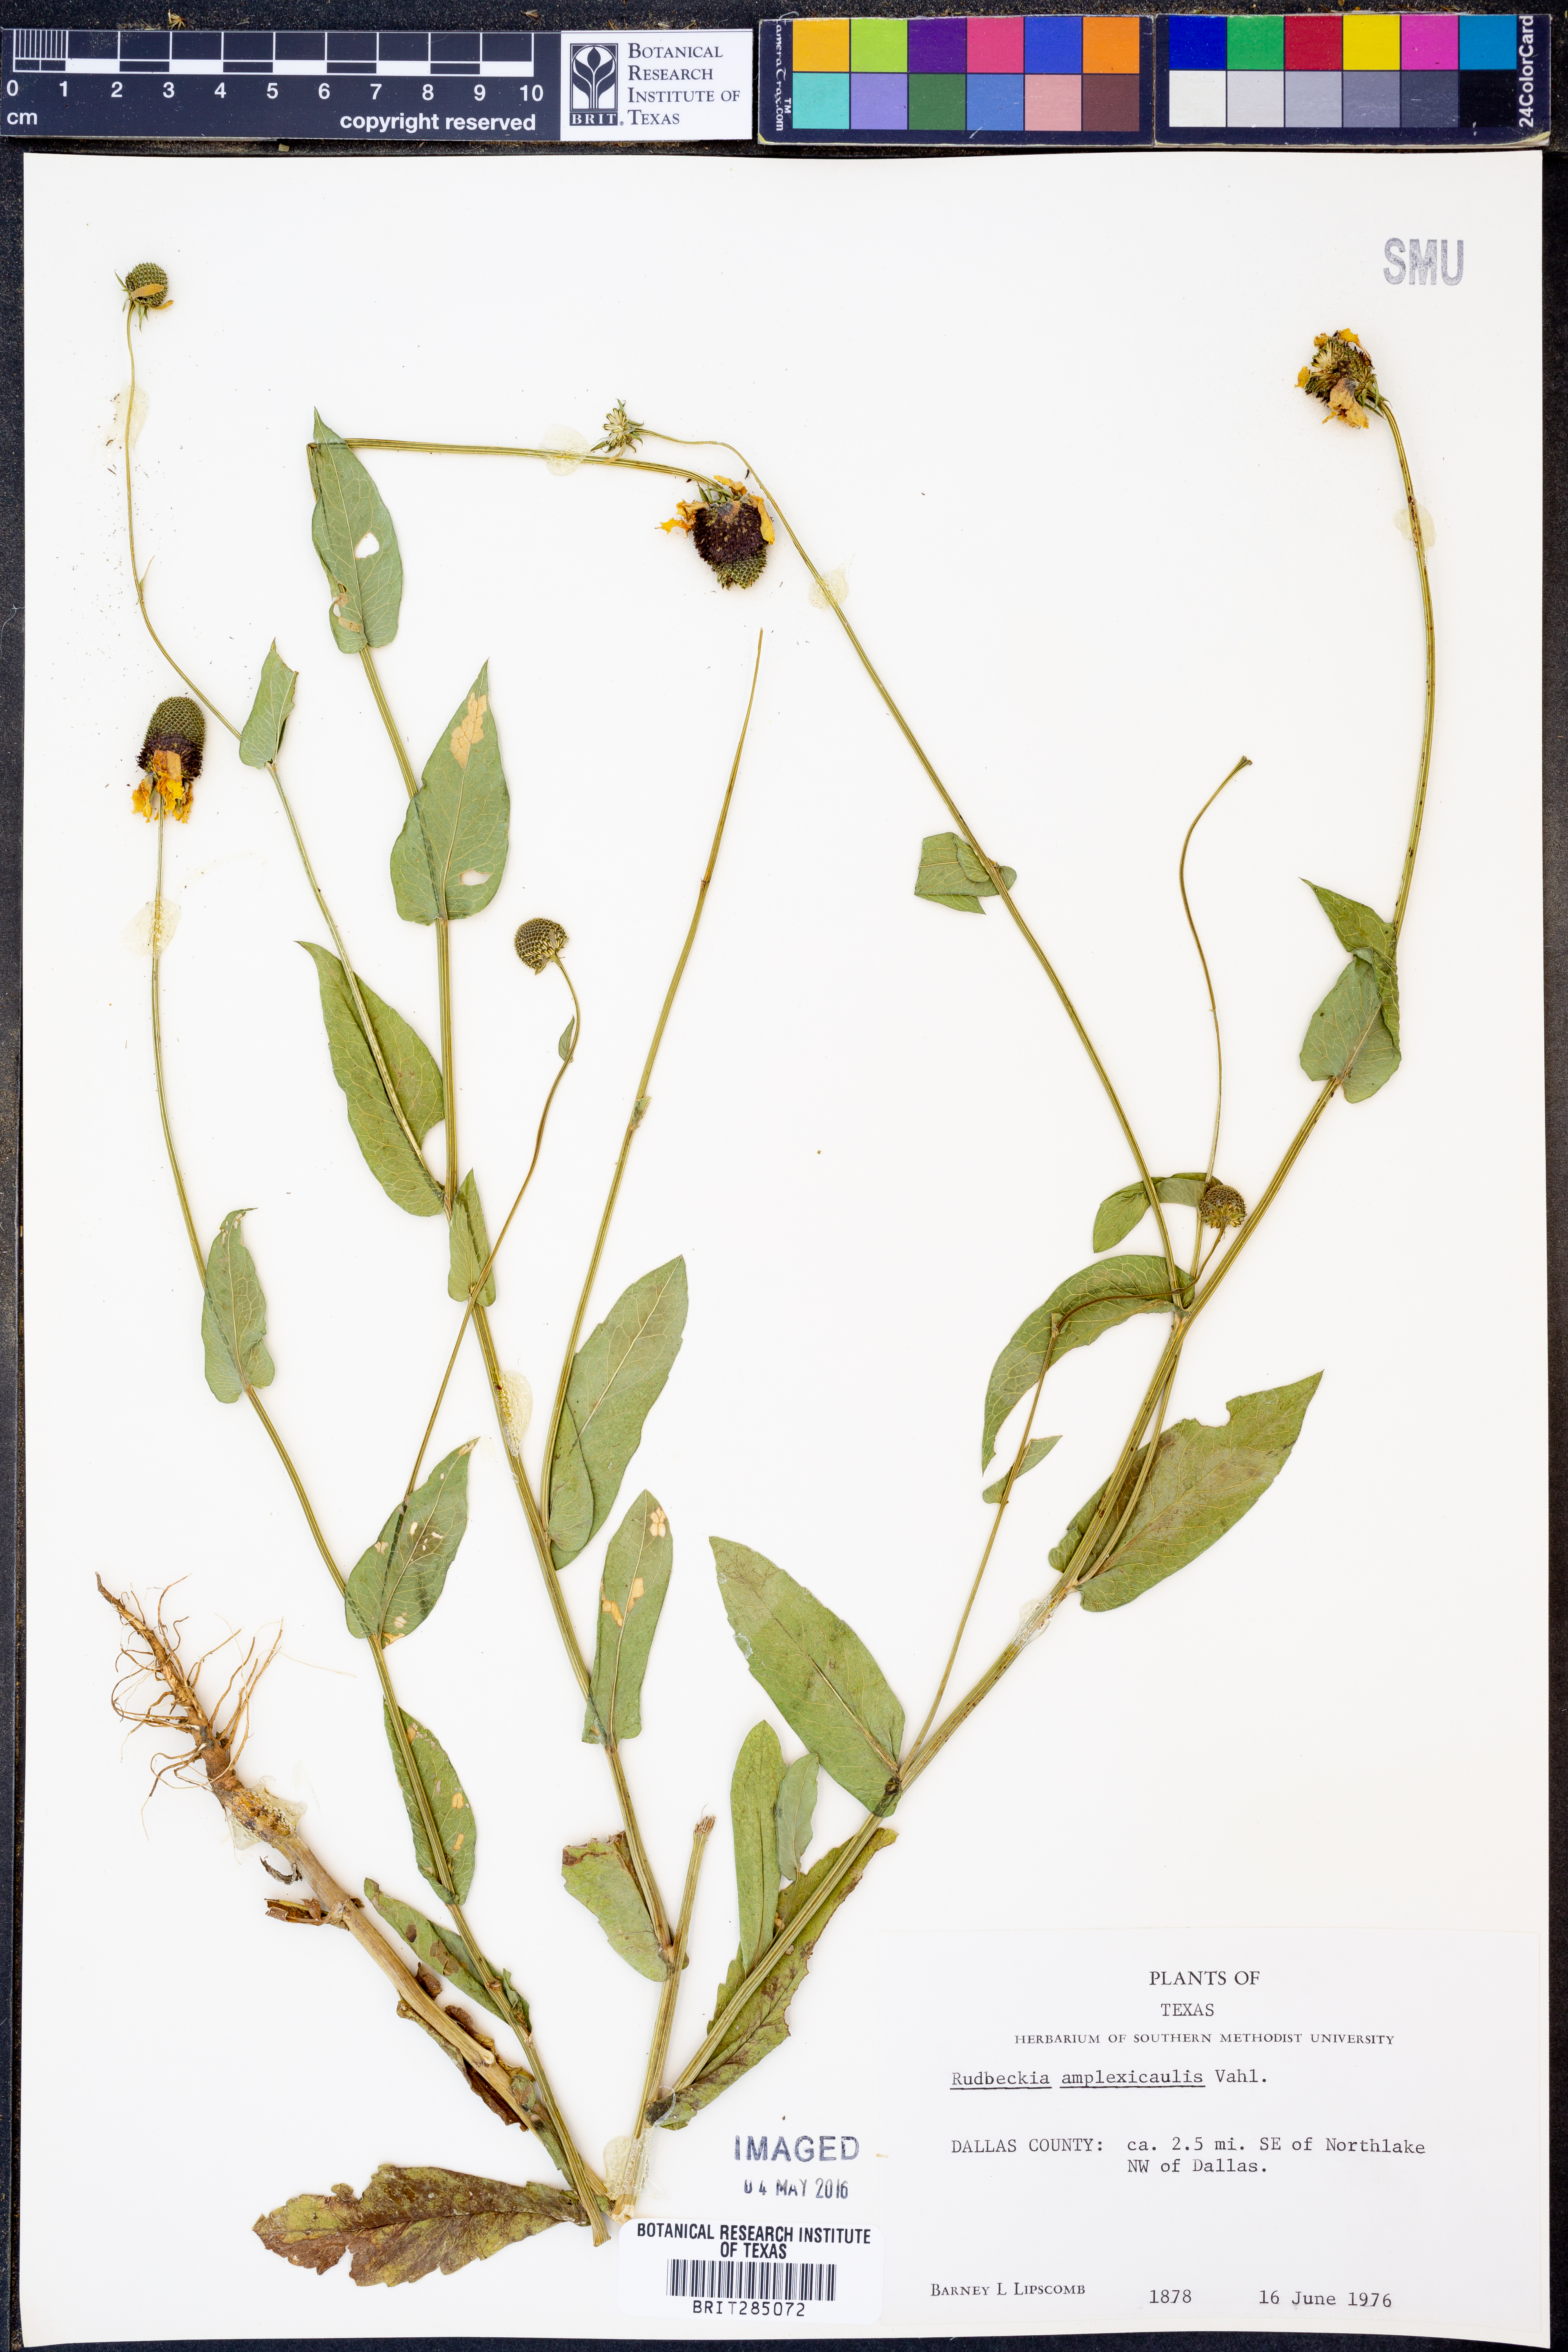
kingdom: Plantae
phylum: Tracheophyta
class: Magnoliopsida
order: Asterales
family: Asteraceae
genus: Rudbeckia
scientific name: Rudbeckia amplexicaulis
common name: Clasping-leaf coneflower
